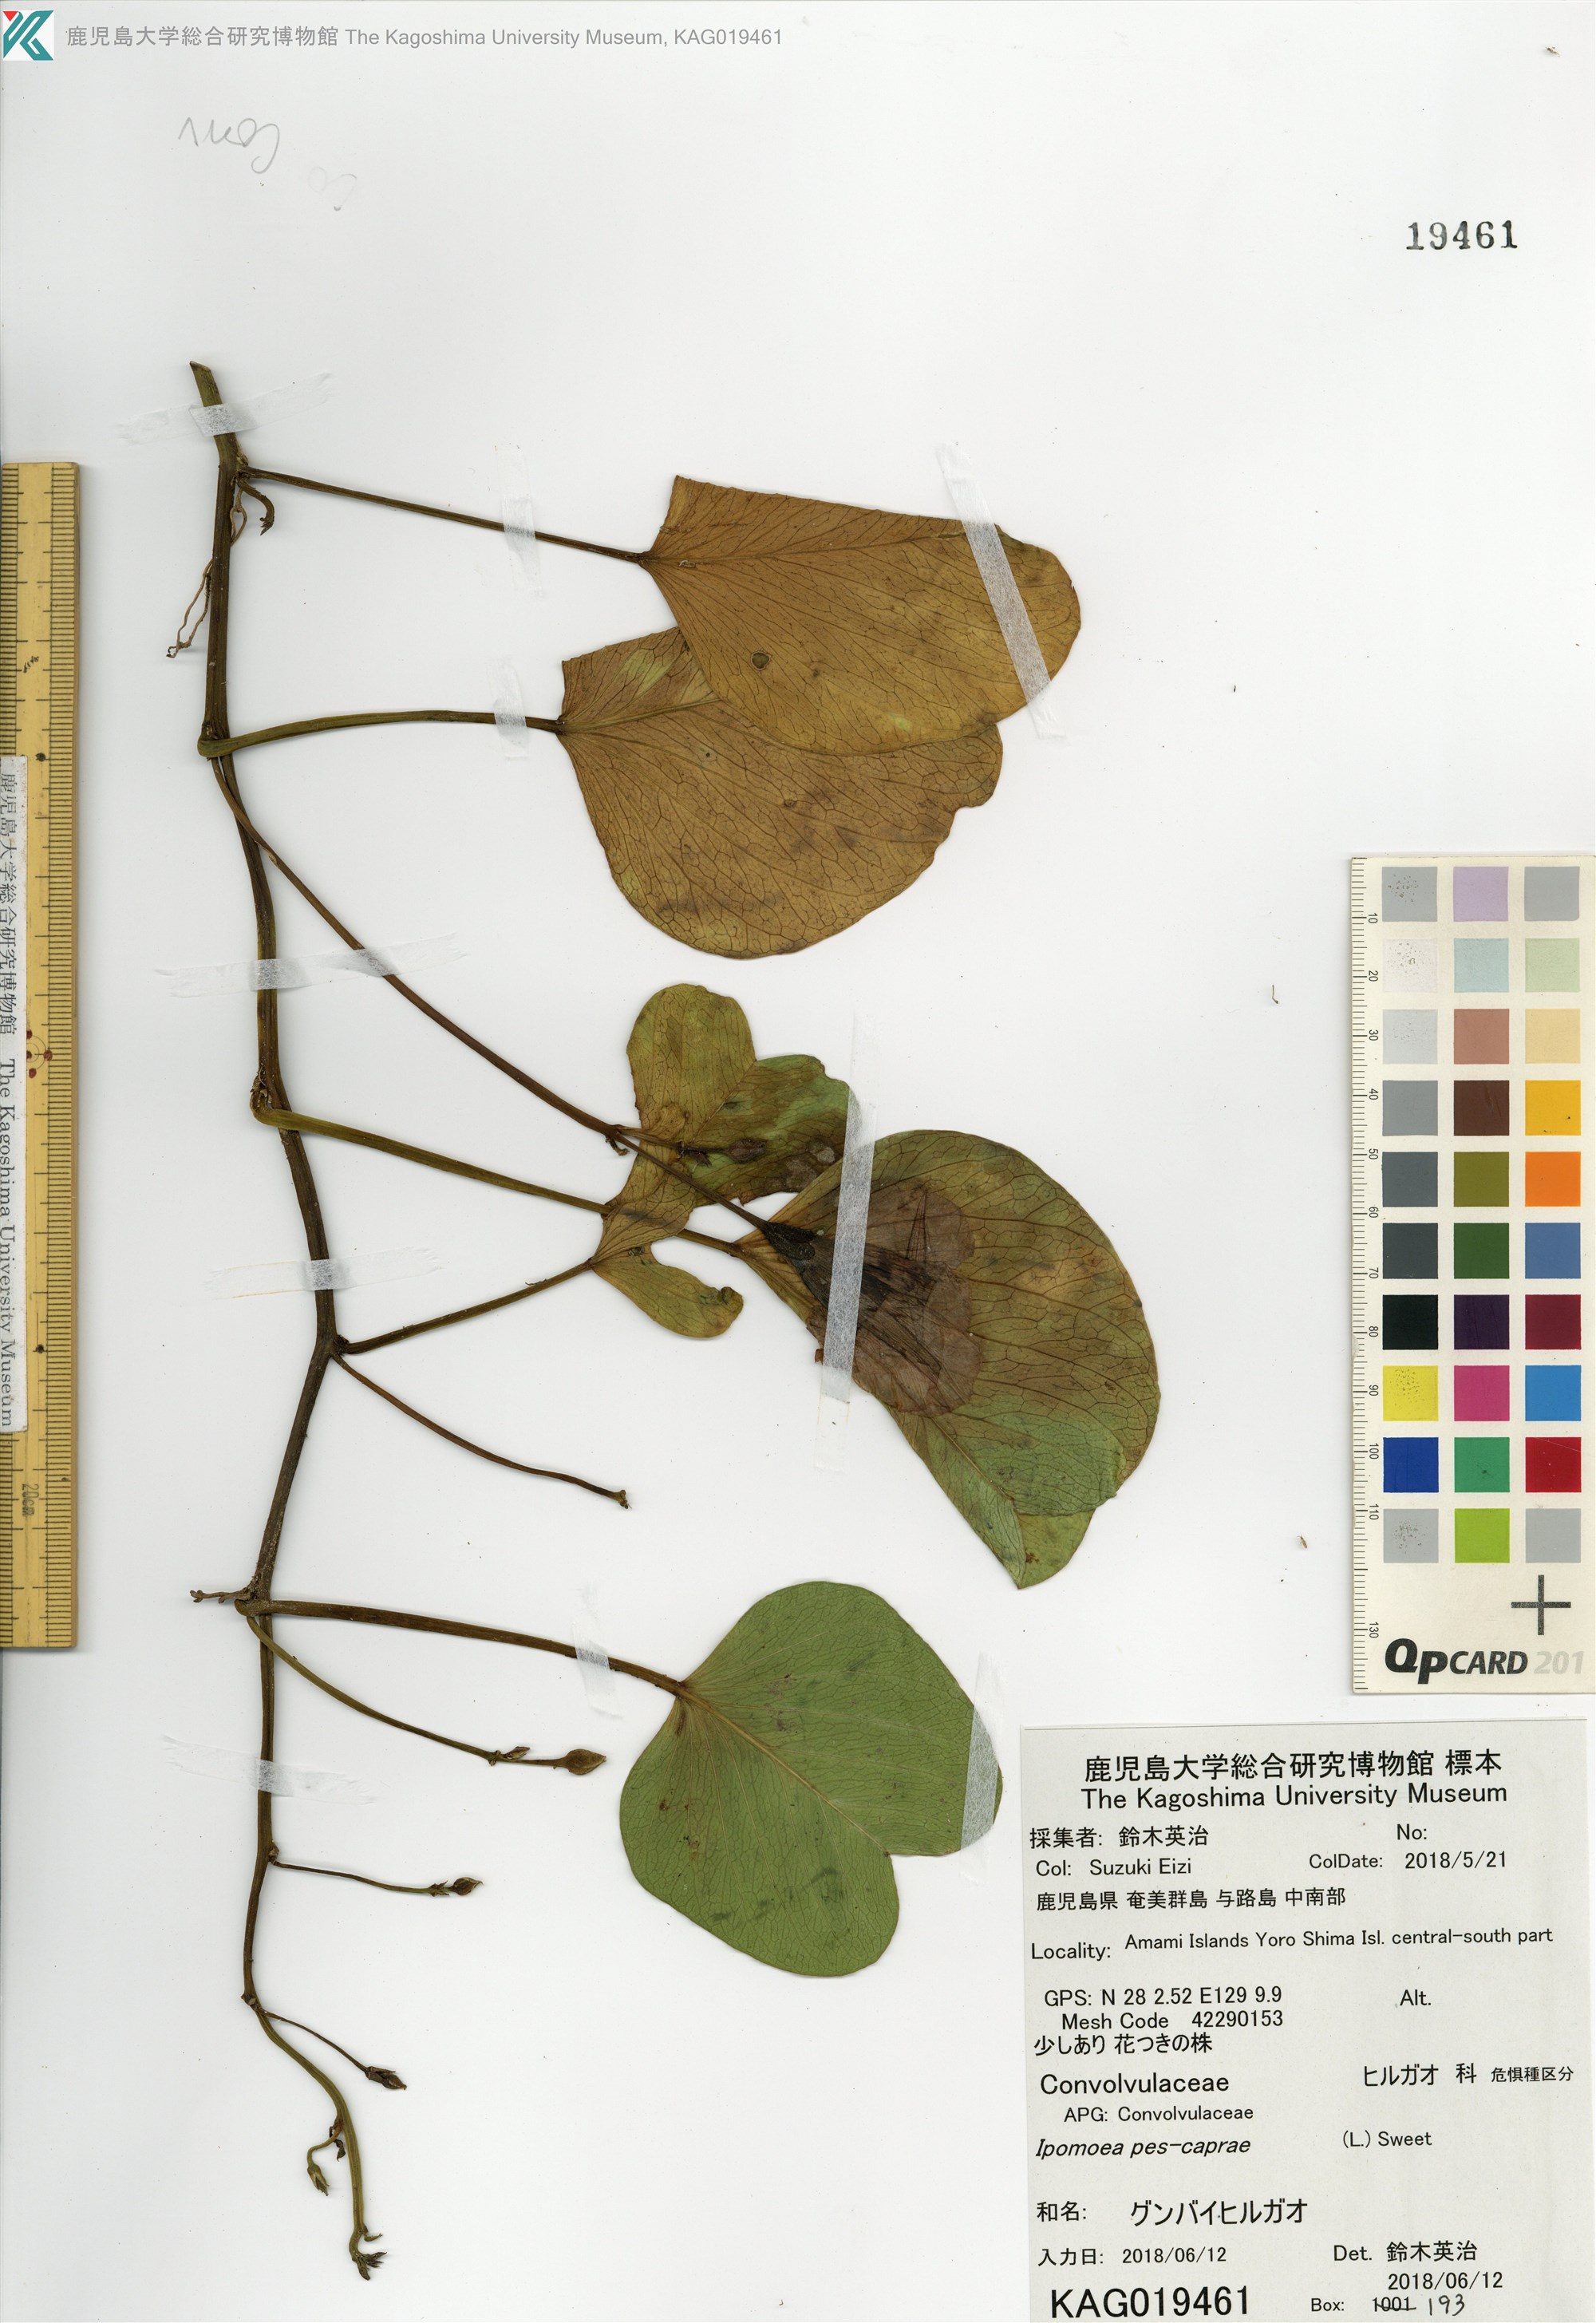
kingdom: Plantae
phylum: Tracheophyta
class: Magnoliopsida
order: Solanales
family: Convolvulaceae
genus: Ipomoea
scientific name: Ipomoea pes-caprae
